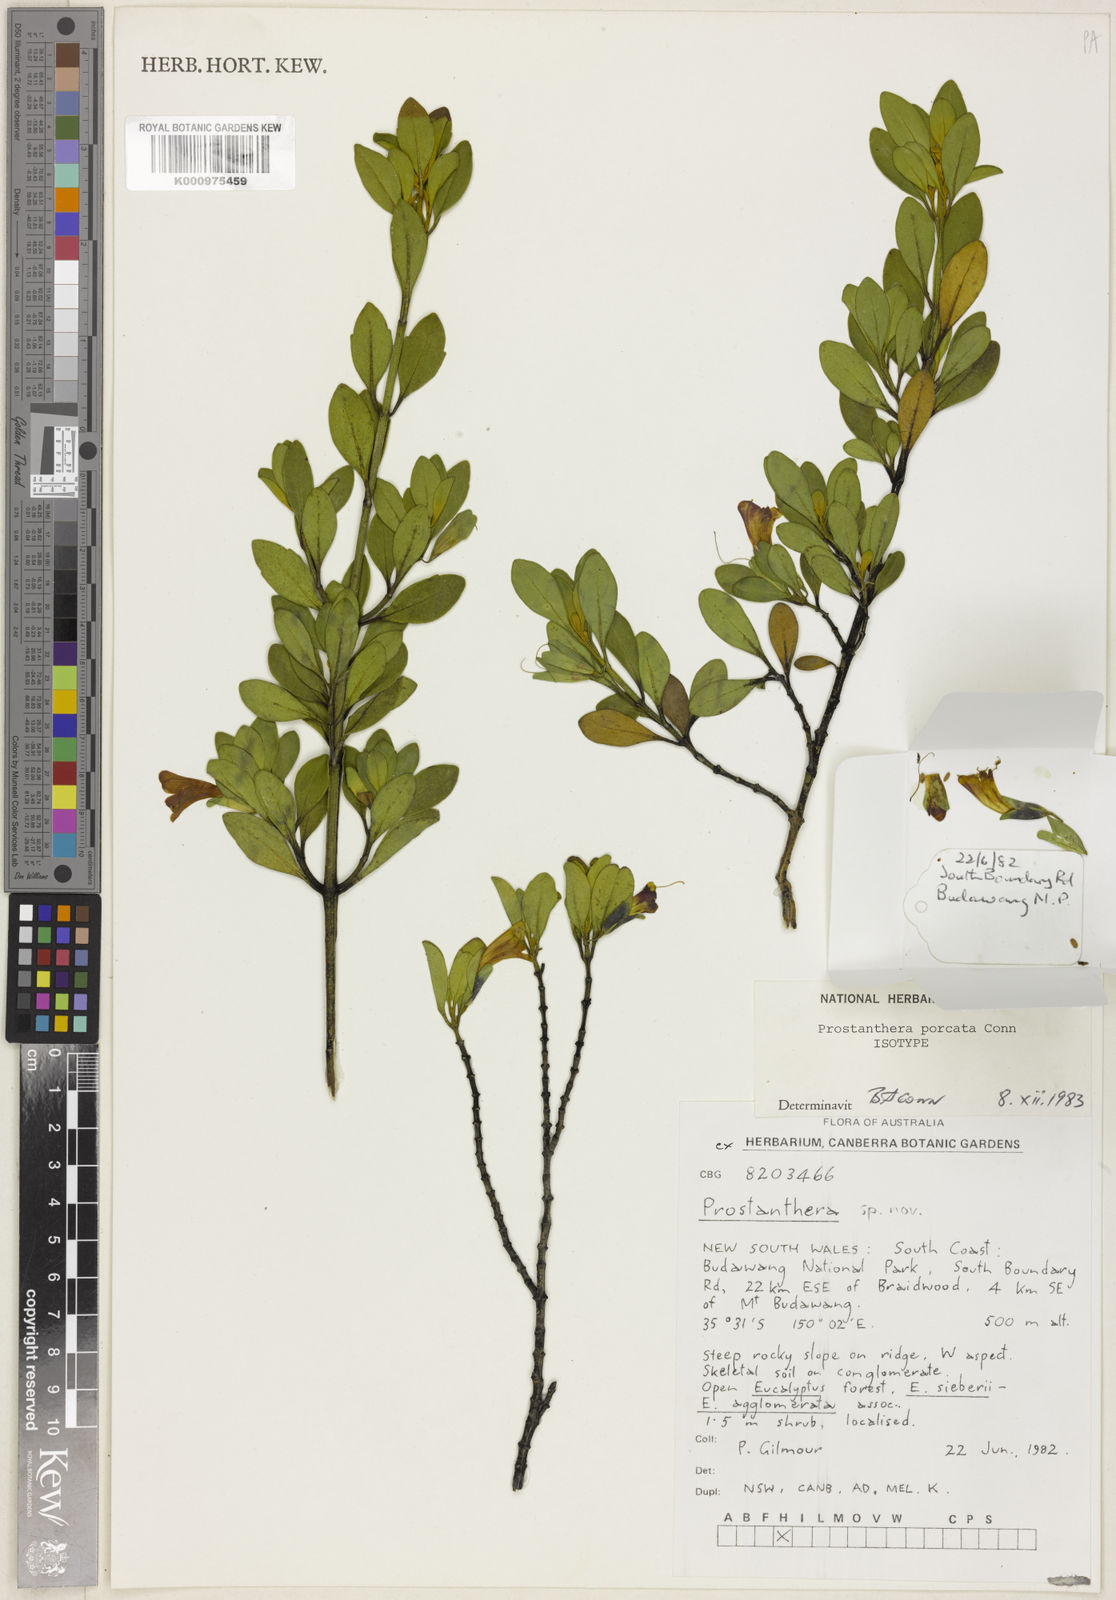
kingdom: Plantae
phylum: Tracheophyta
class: Magnoliopsida
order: Lamiales
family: Lamiaceae
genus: Prostanthera
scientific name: Prostanthera porcata
